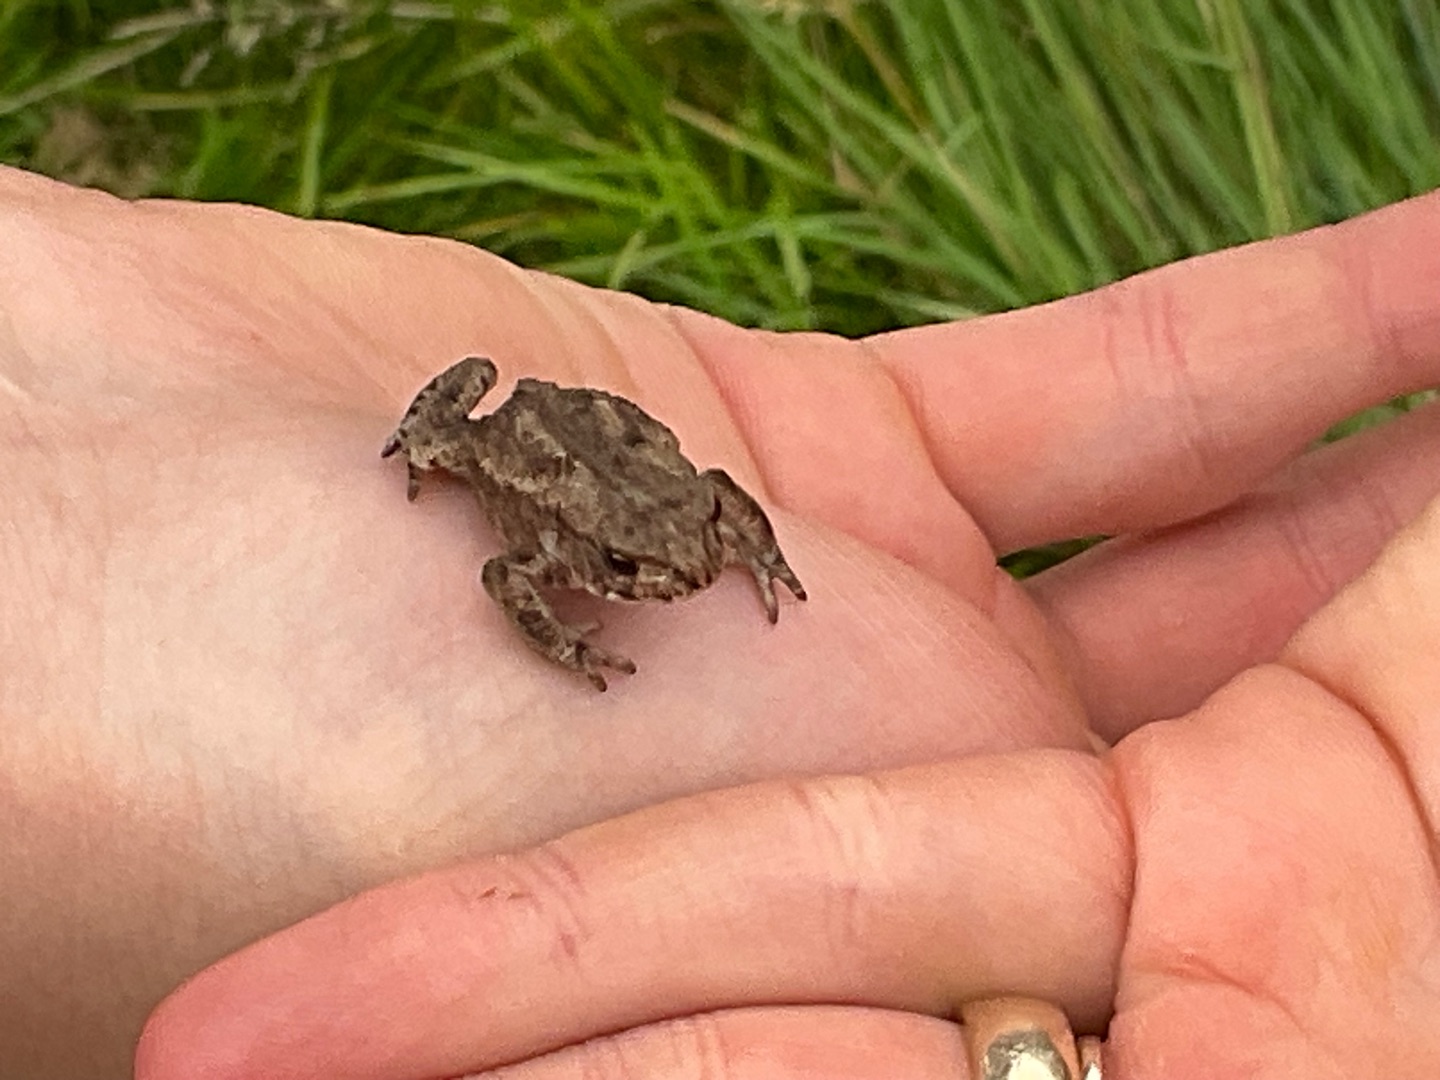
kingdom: Animalia
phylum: Chordata
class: Amphibia
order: Anura
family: Bufonidae
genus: Bufo
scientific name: Bufo bufo
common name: Skrubtudse
